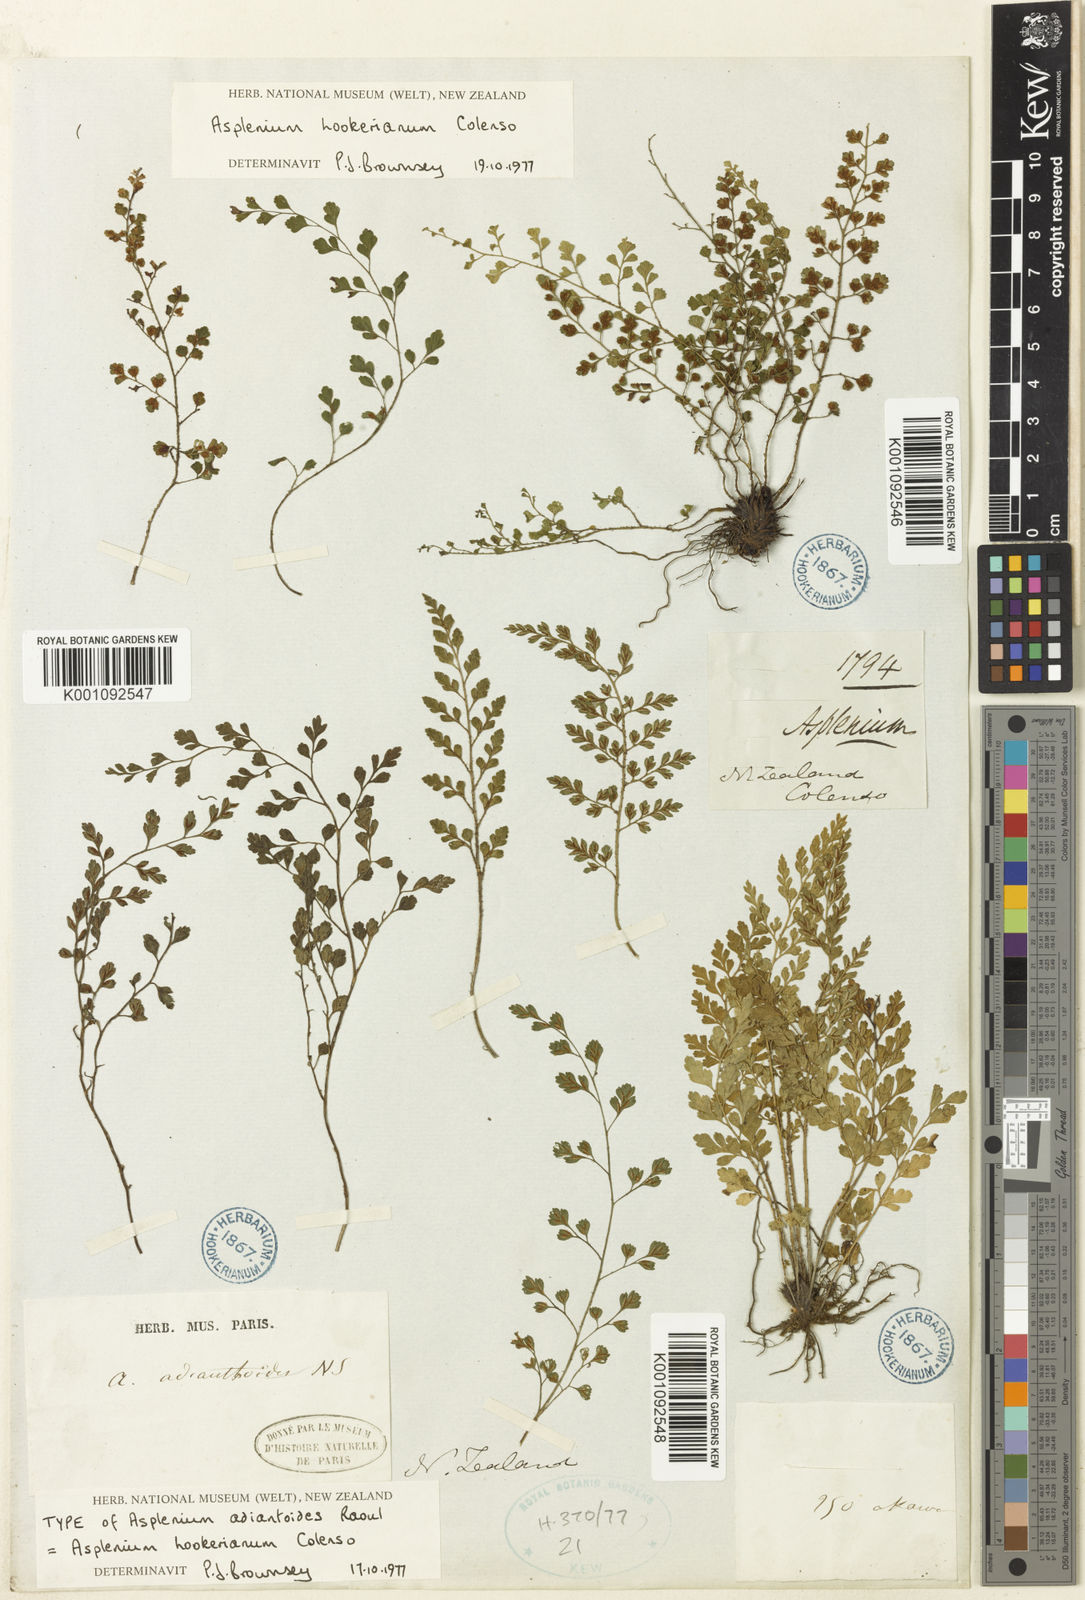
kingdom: Plantae
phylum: Tracheophyta
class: Polypodiopsida
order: Polypodiales
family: Aspleniaceae
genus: Asplenium
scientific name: Asplenium hookerianum
